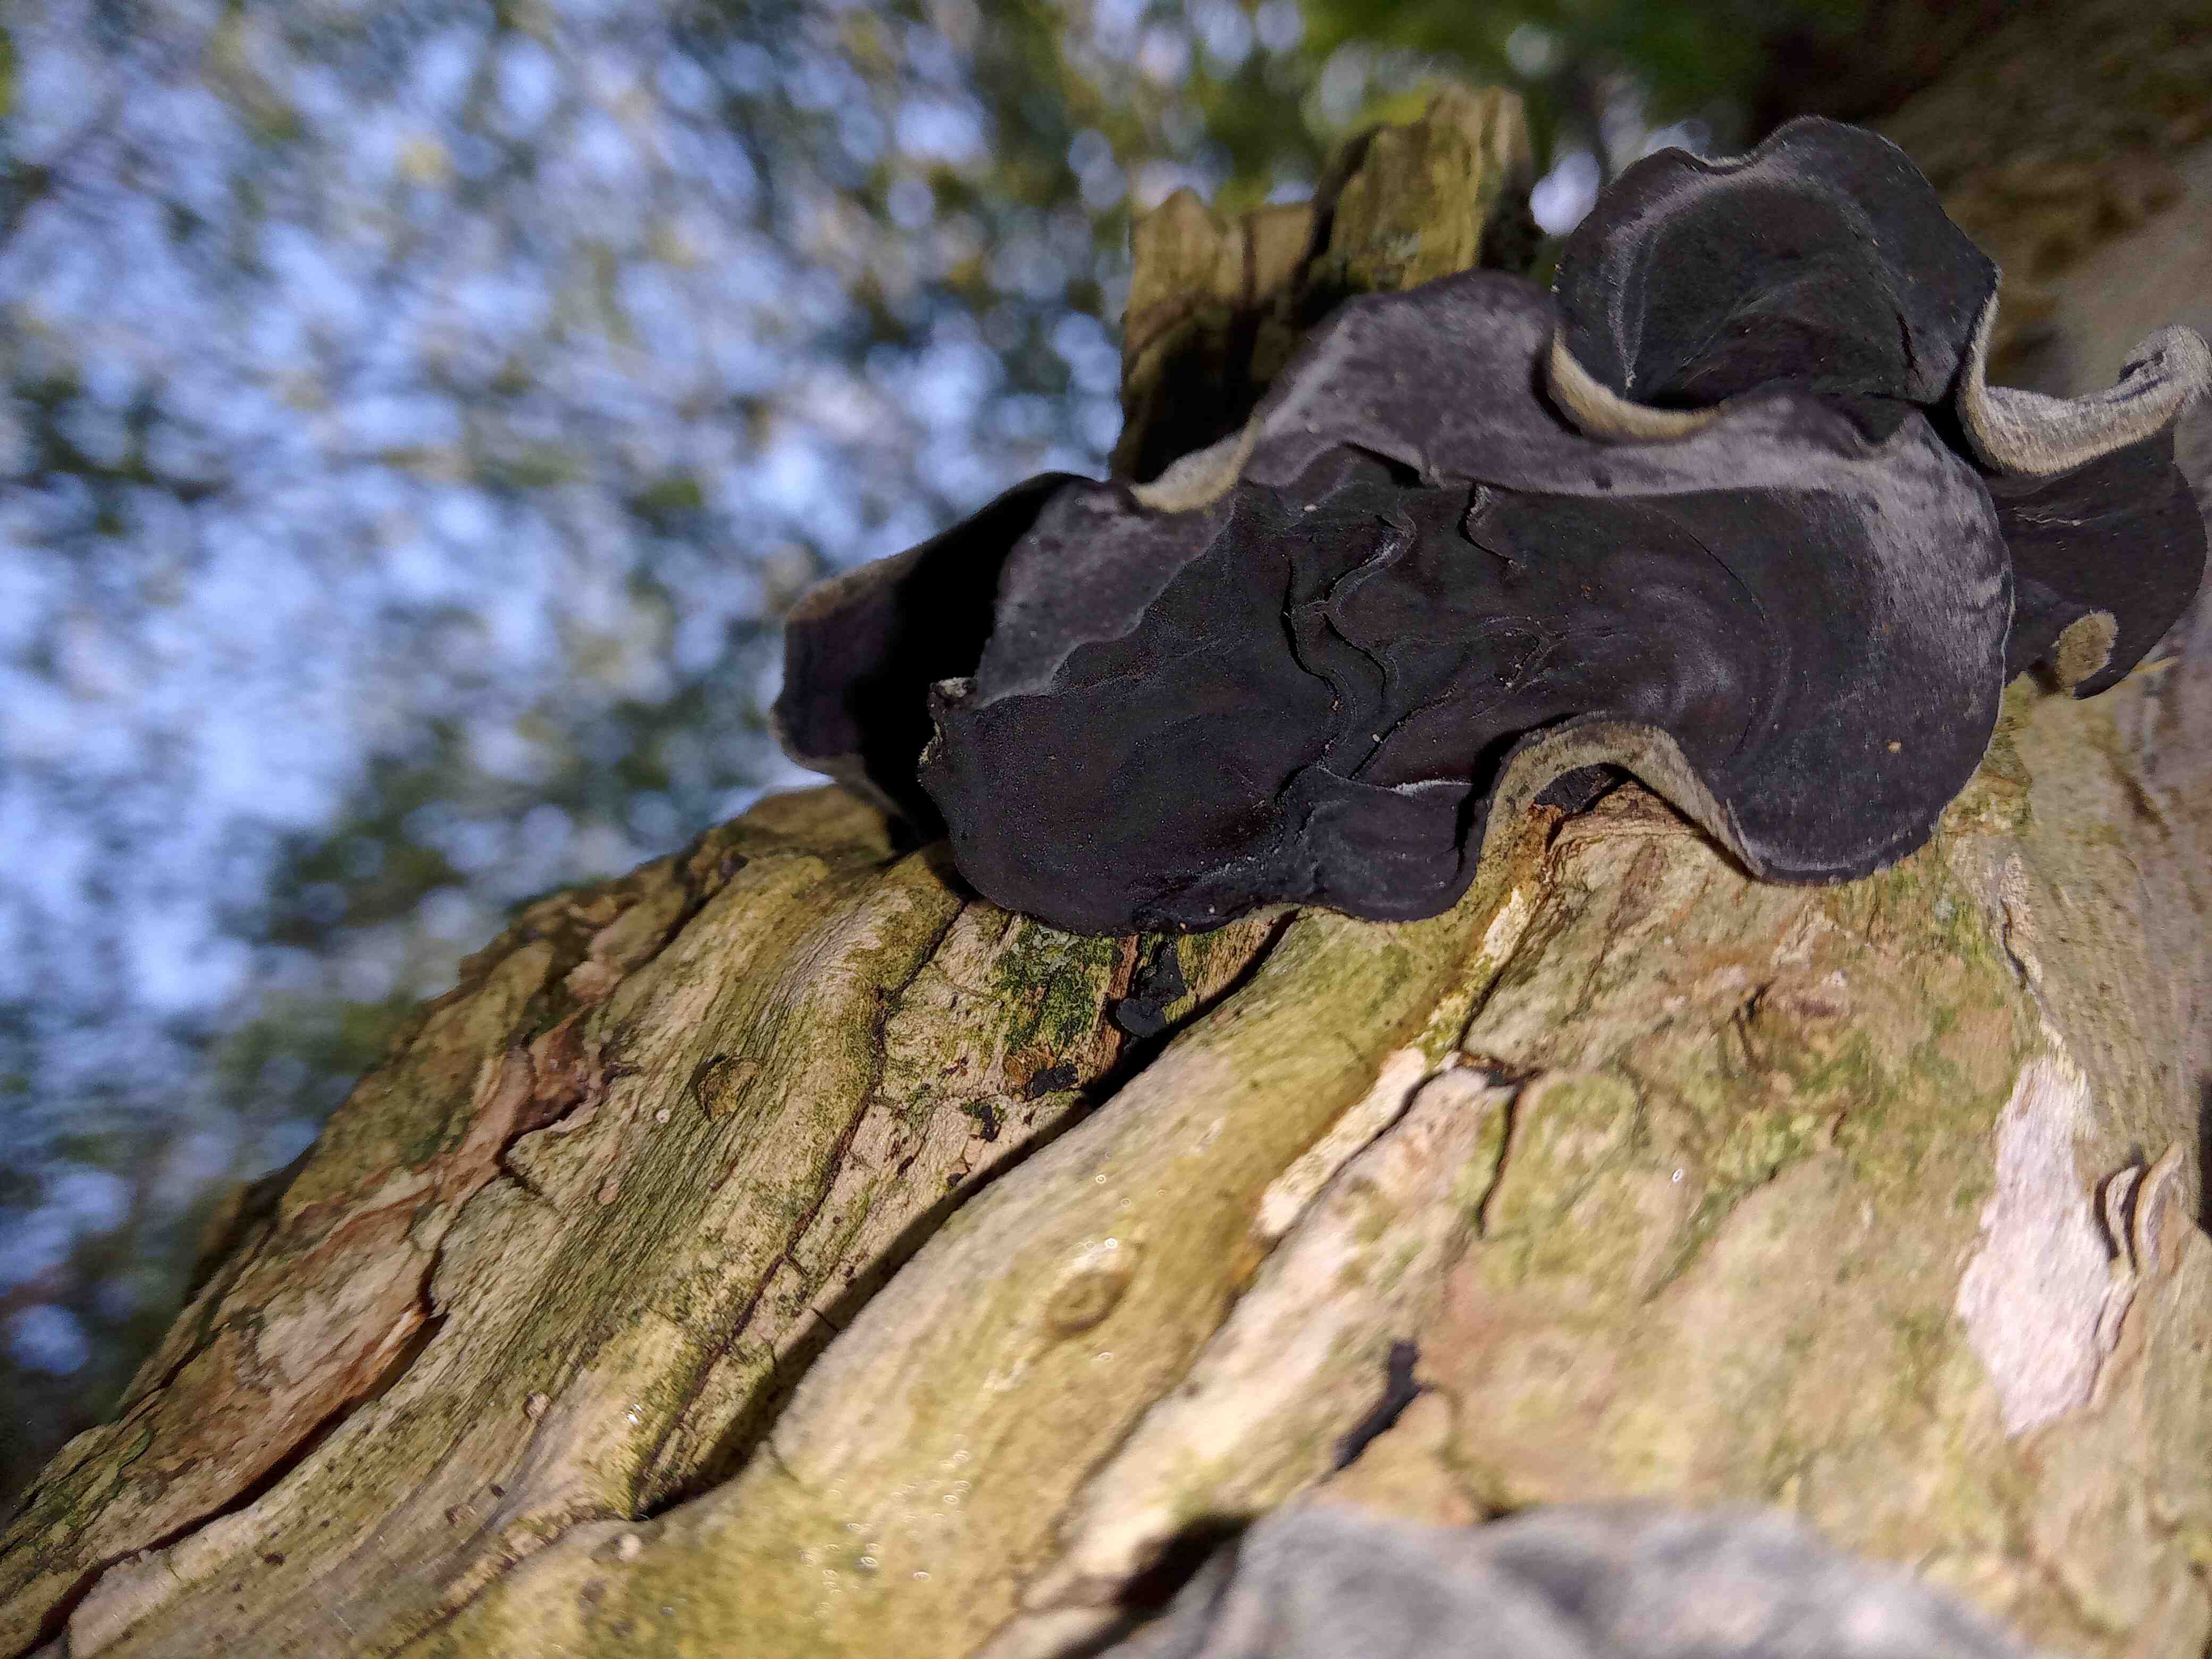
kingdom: Fungi
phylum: Basidiomycota
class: Agaricomycetes
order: Auriculariales
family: Auriculariaceae
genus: Auricularia
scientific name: Auricularia auricula-judae
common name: almindelig judasøre
